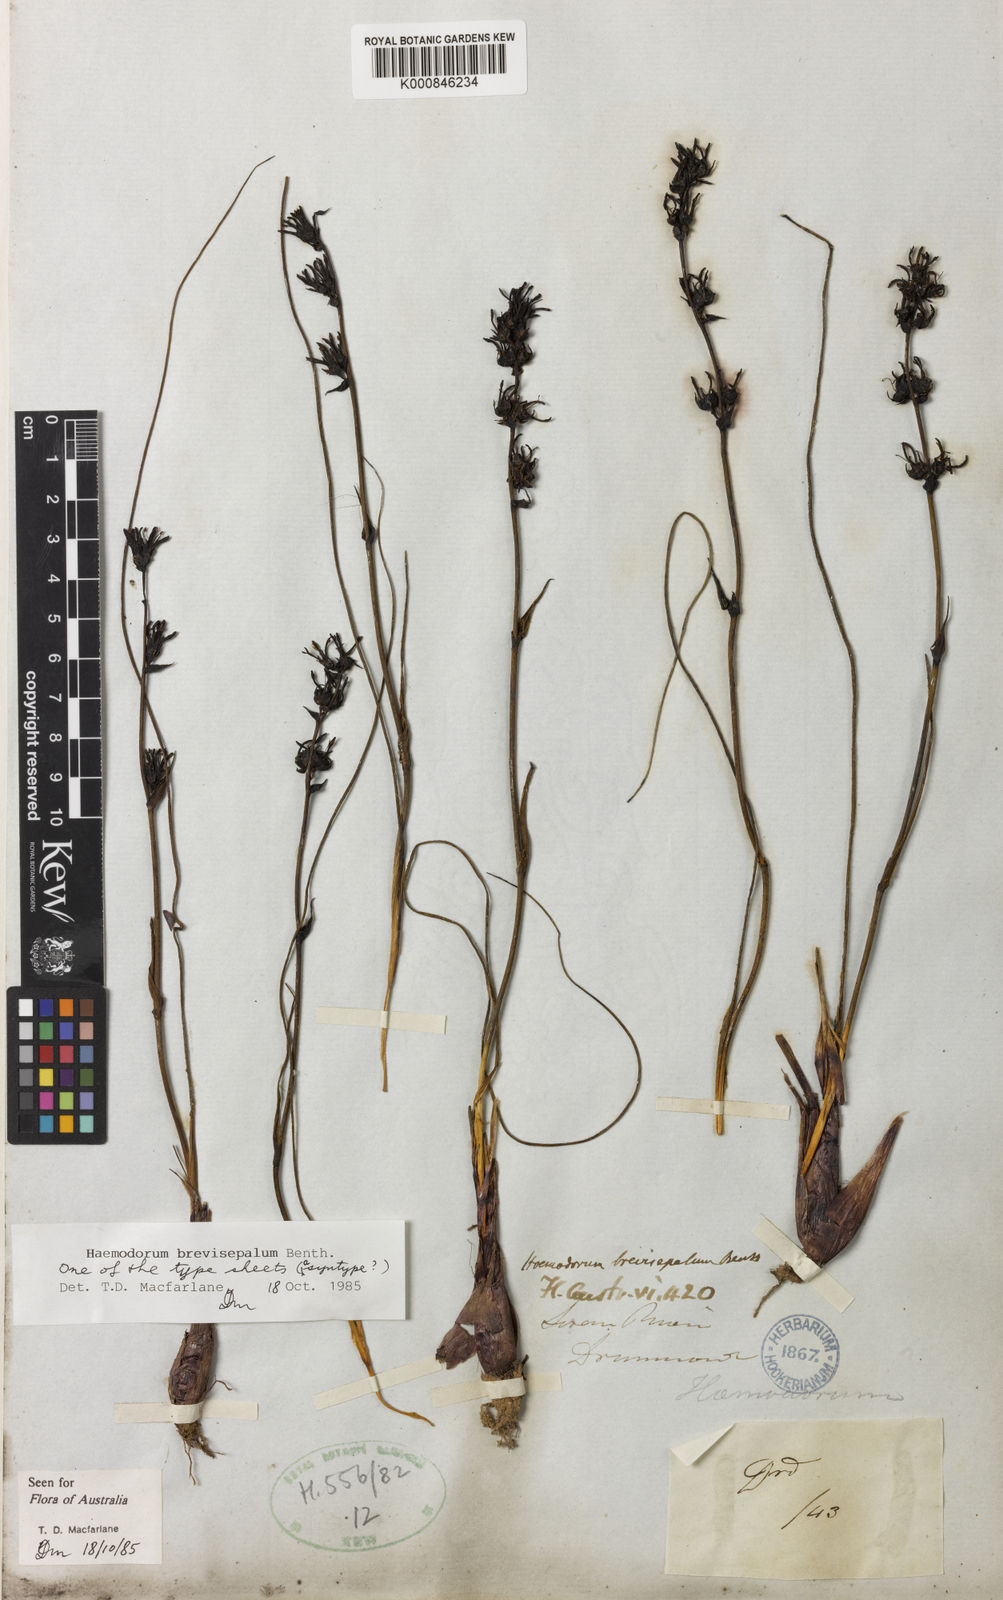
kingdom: Plantae
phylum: Tracheophyta
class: Liliopsida
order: Commelinales
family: Haemodoraceae
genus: Haemodorum
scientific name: Haemodorum brevisepalum
